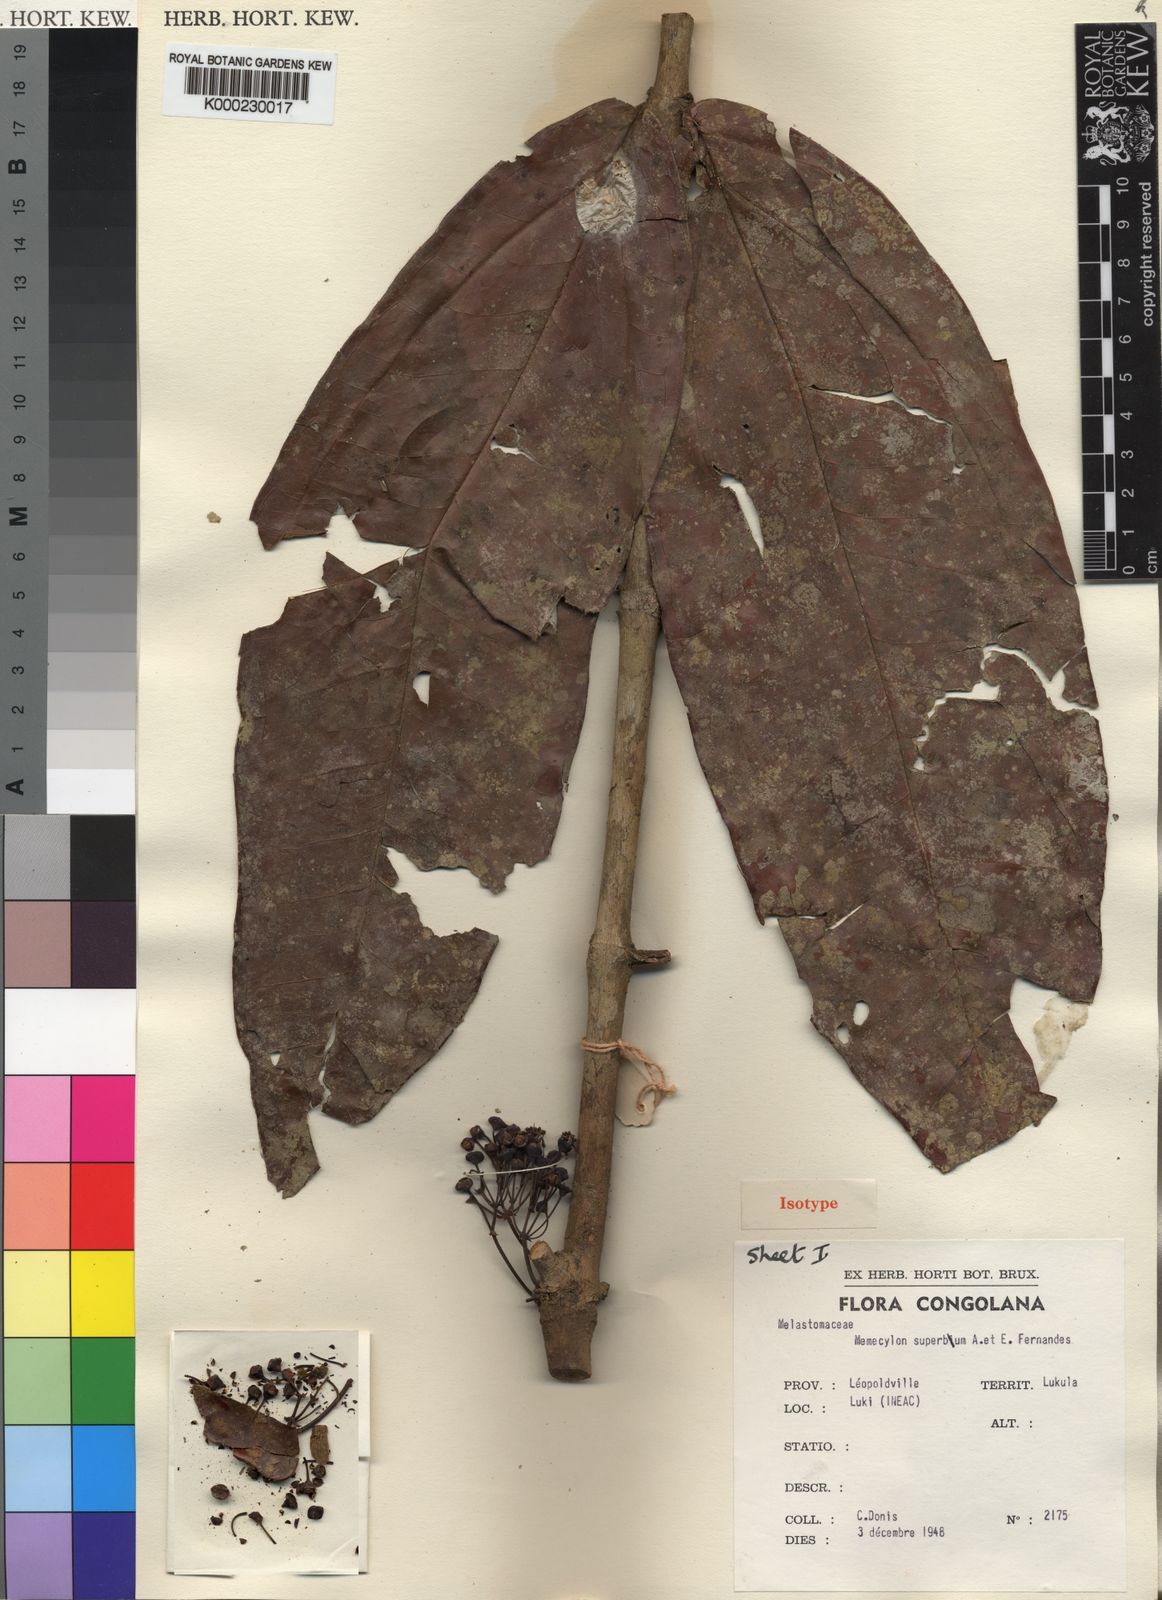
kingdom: Plantae
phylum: Tracheophyta
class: Magnoliopsida
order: Myrtales
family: Melastomataceae
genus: Warneckea
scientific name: Warneckea
